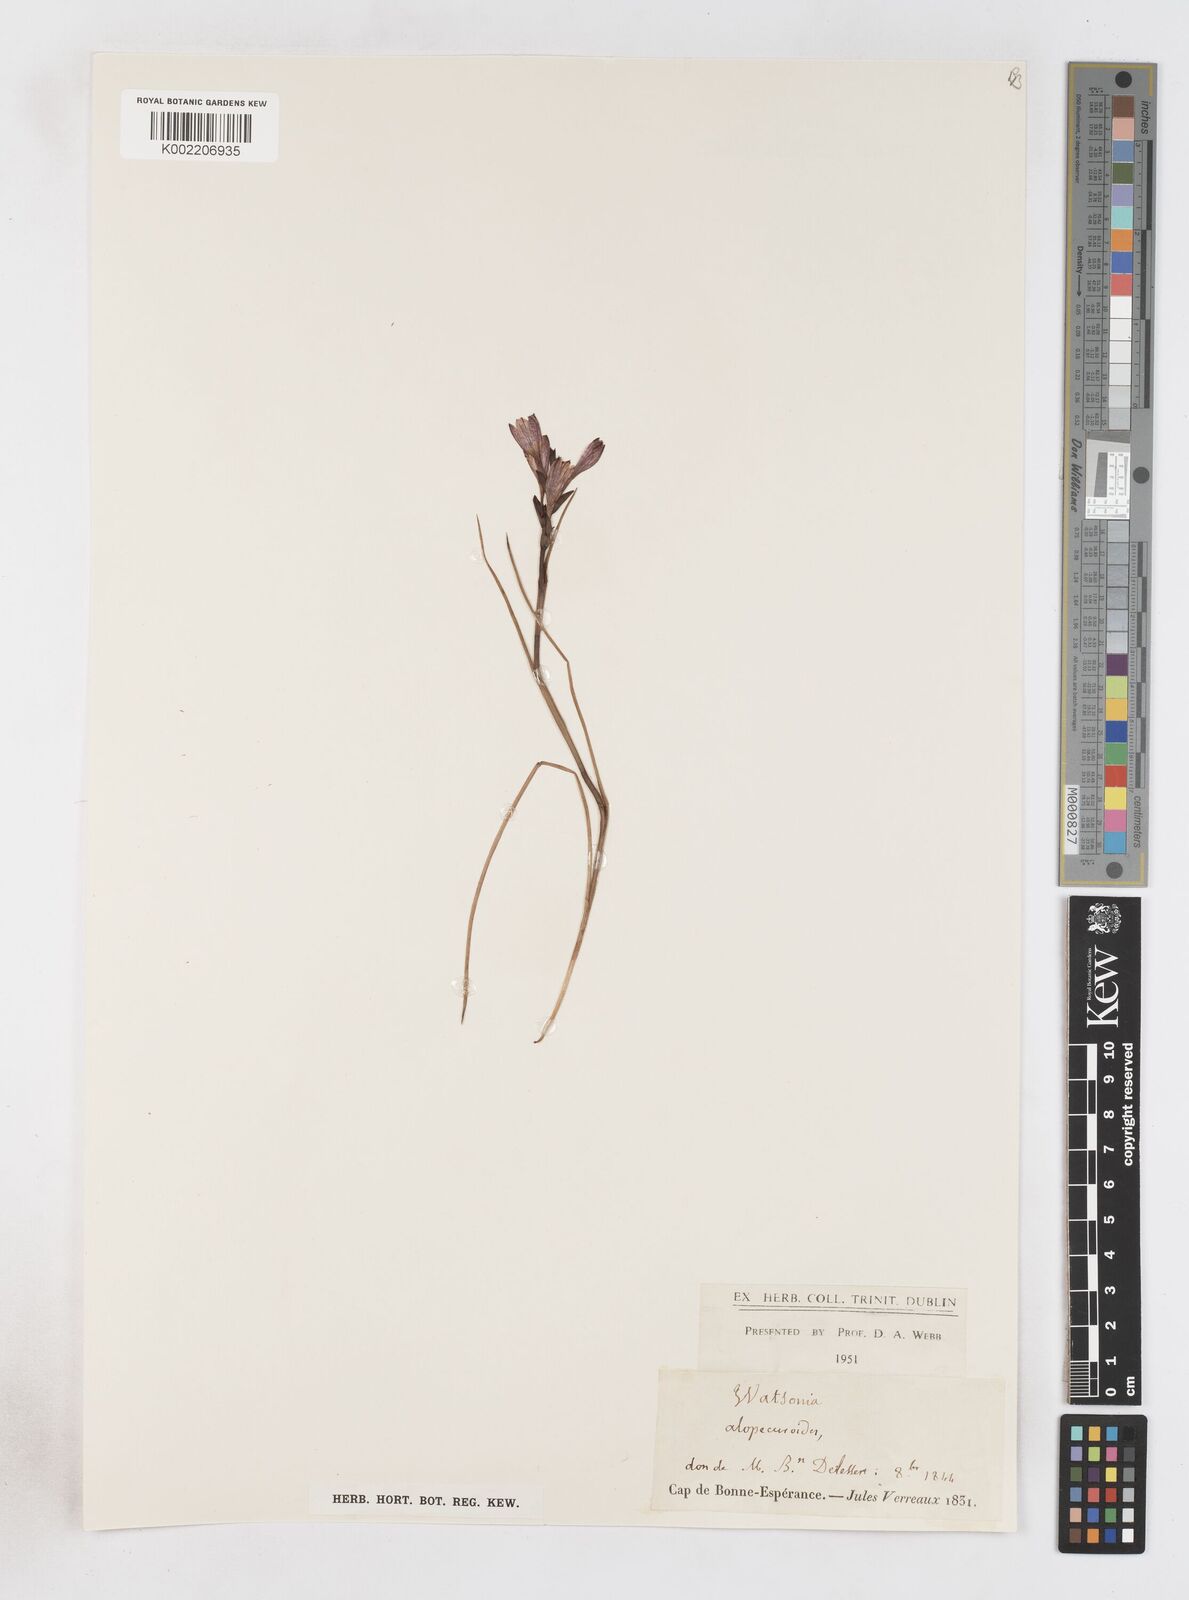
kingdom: Plantae
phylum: Tracheophyta
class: Liliopsida
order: Asparagales
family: Iridaceae
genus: Thereianthus
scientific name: Thereianthus spicatus
